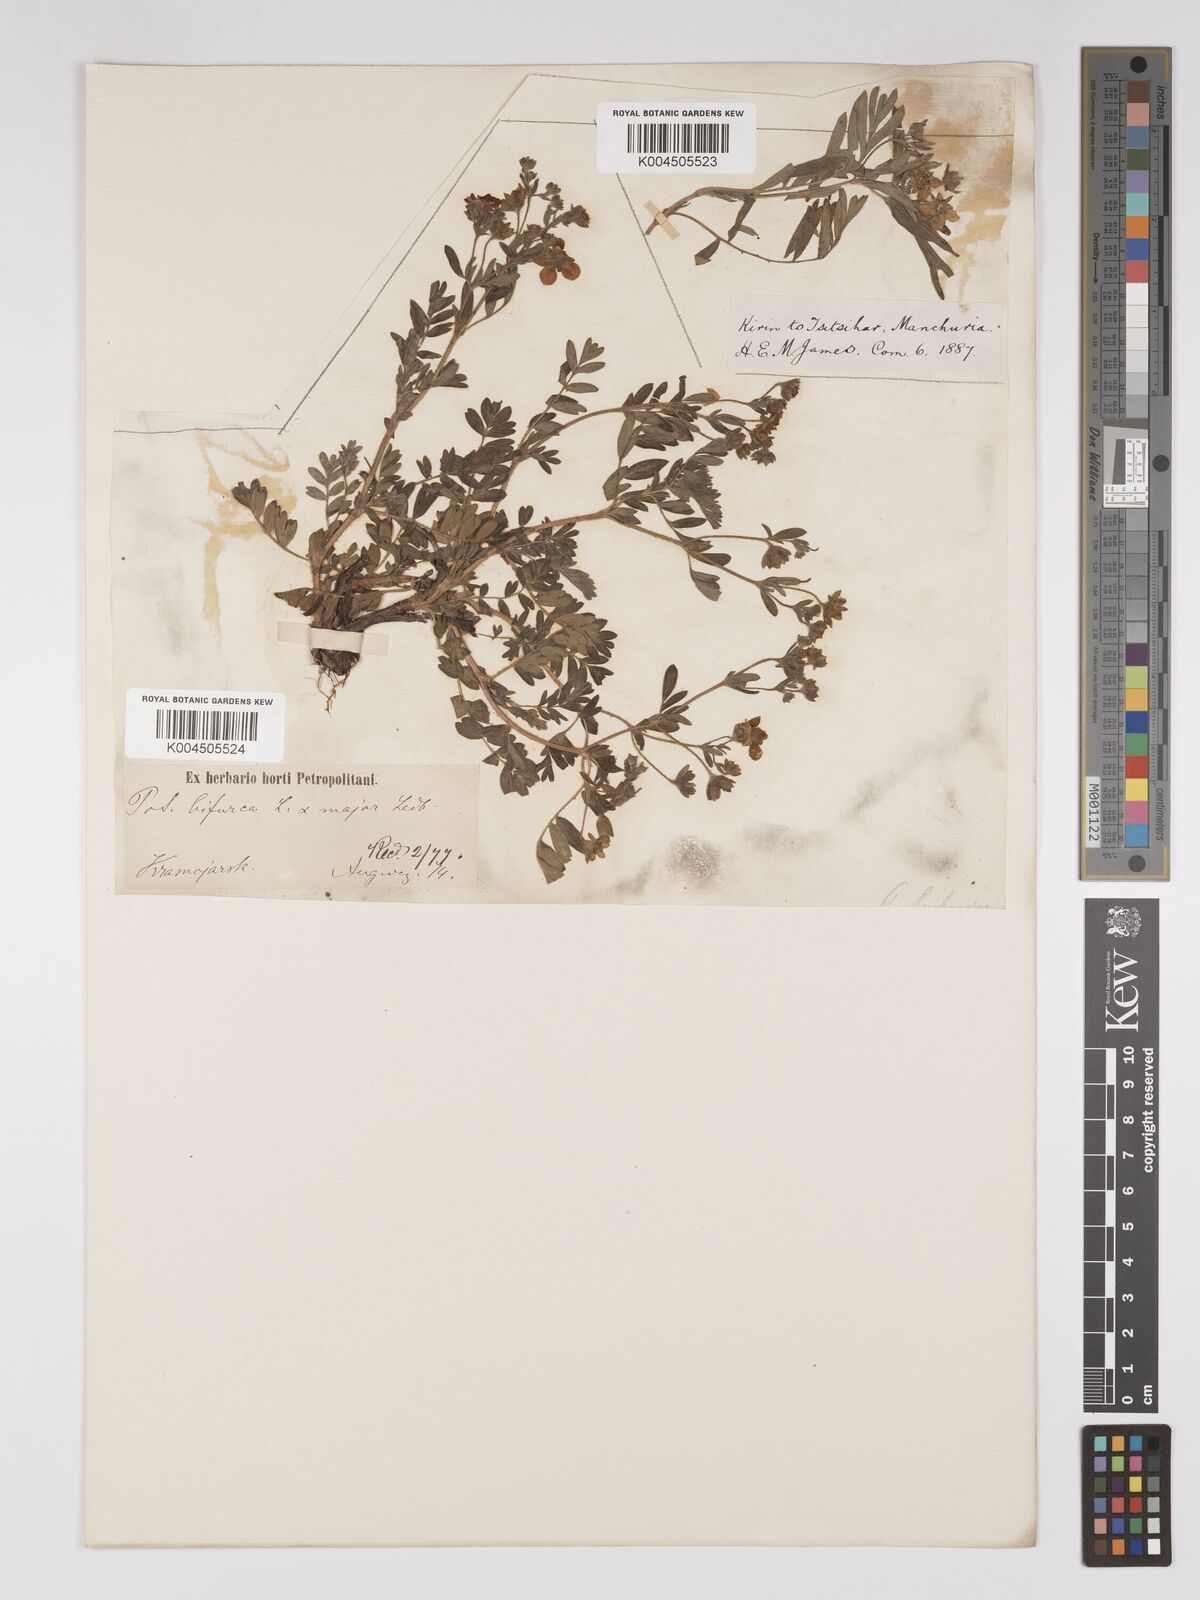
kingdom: Plantae
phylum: Tracheophyta
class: Magnoliopsida
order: Rosales
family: Rosaceae
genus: Sibbaldianthe
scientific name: Sibbaldianthe bifurca
